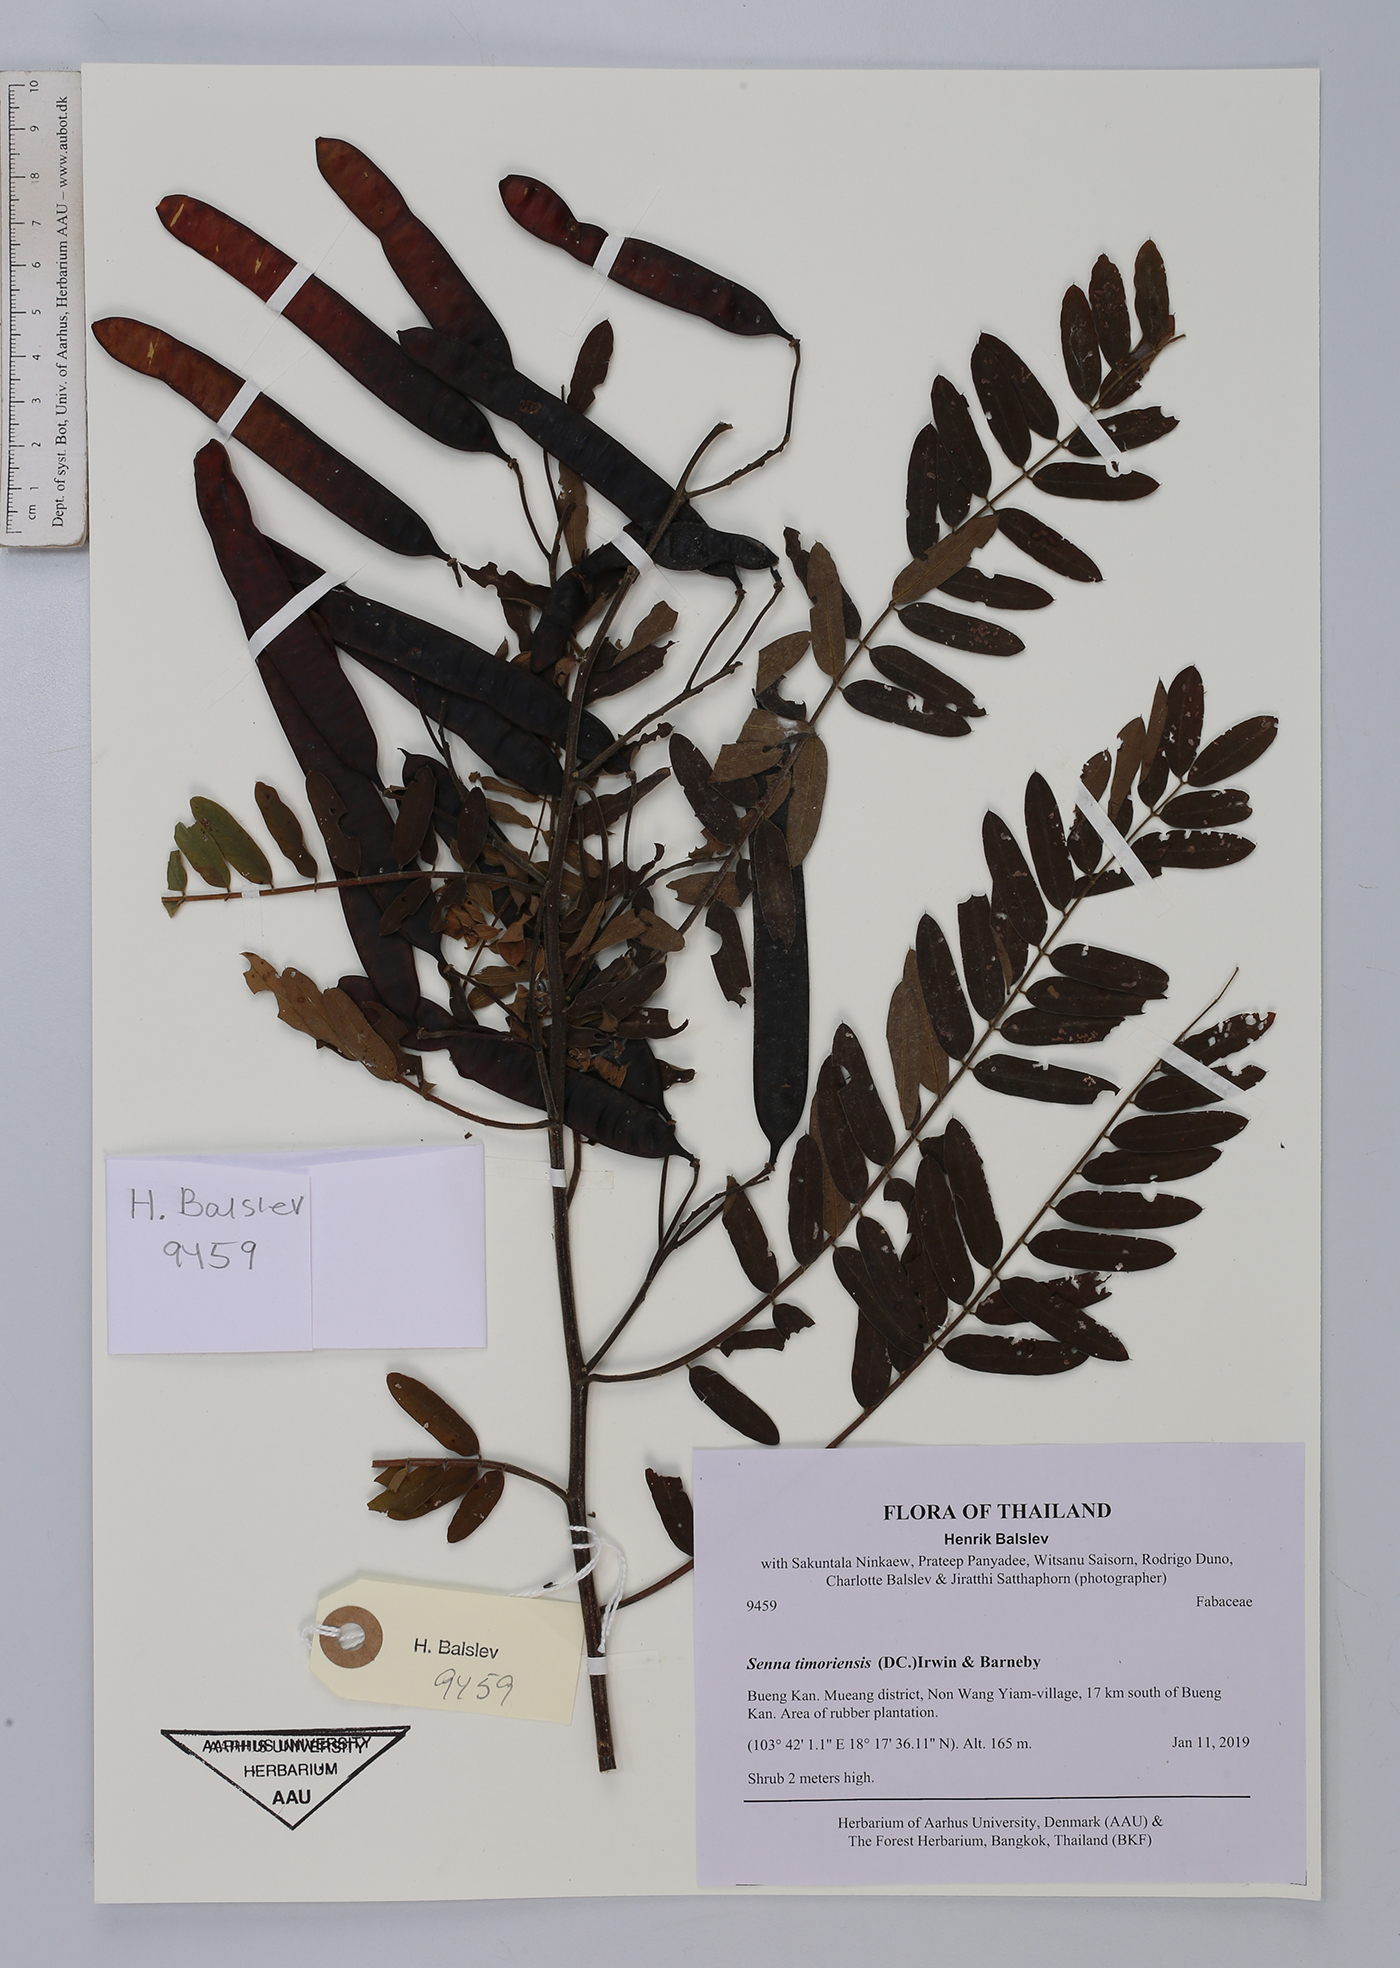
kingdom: Plantae
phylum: Tracheophyta
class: Magnoliopsida
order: Fabales
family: Fabaceae
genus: Senna
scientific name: Senna timoriensis
